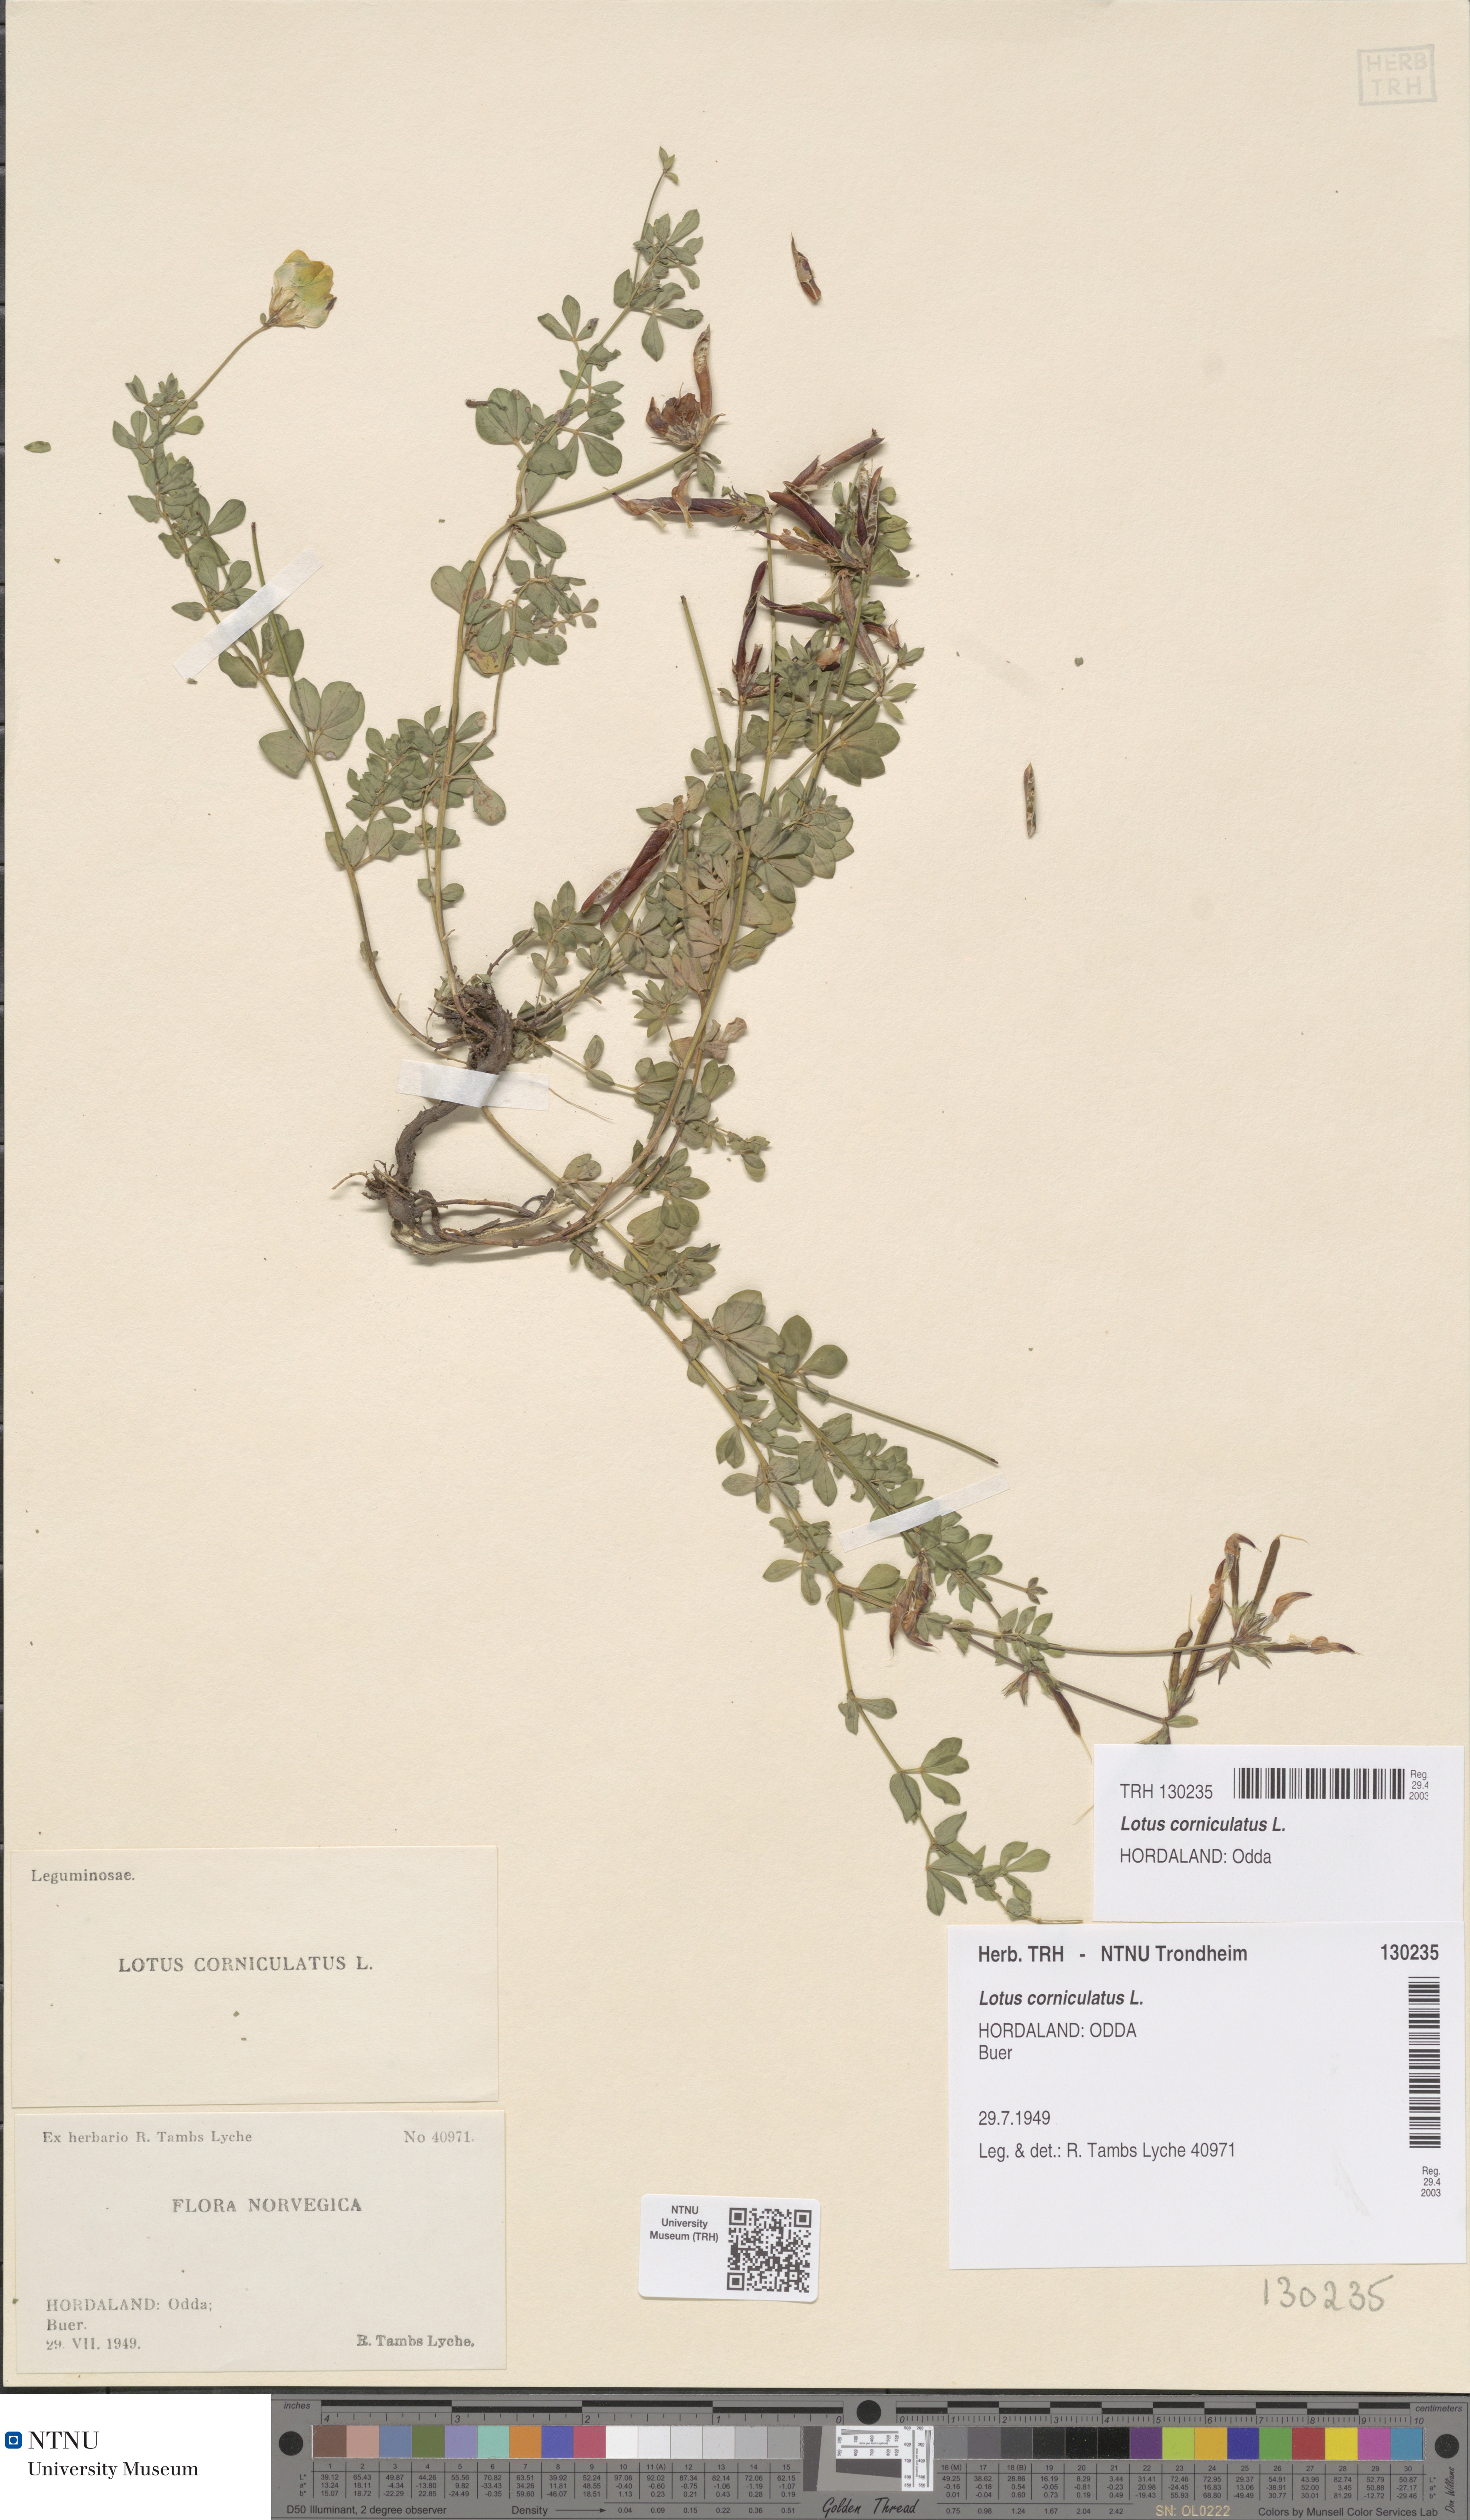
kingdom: Plantae
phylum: Tracheophyta
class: Magnoliopsida
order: Fabales
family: Fabaceae
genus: Lotus
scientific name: Lotus corniculatus
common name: Common bird's-foot-trefoil
